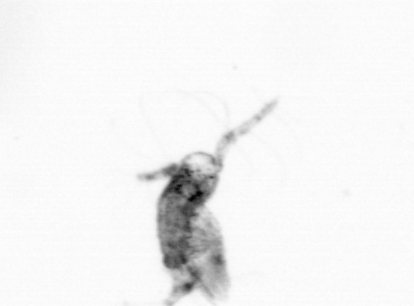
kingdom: Animalia
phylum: Arthropoda
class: Copepoda
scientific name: Copepoda
